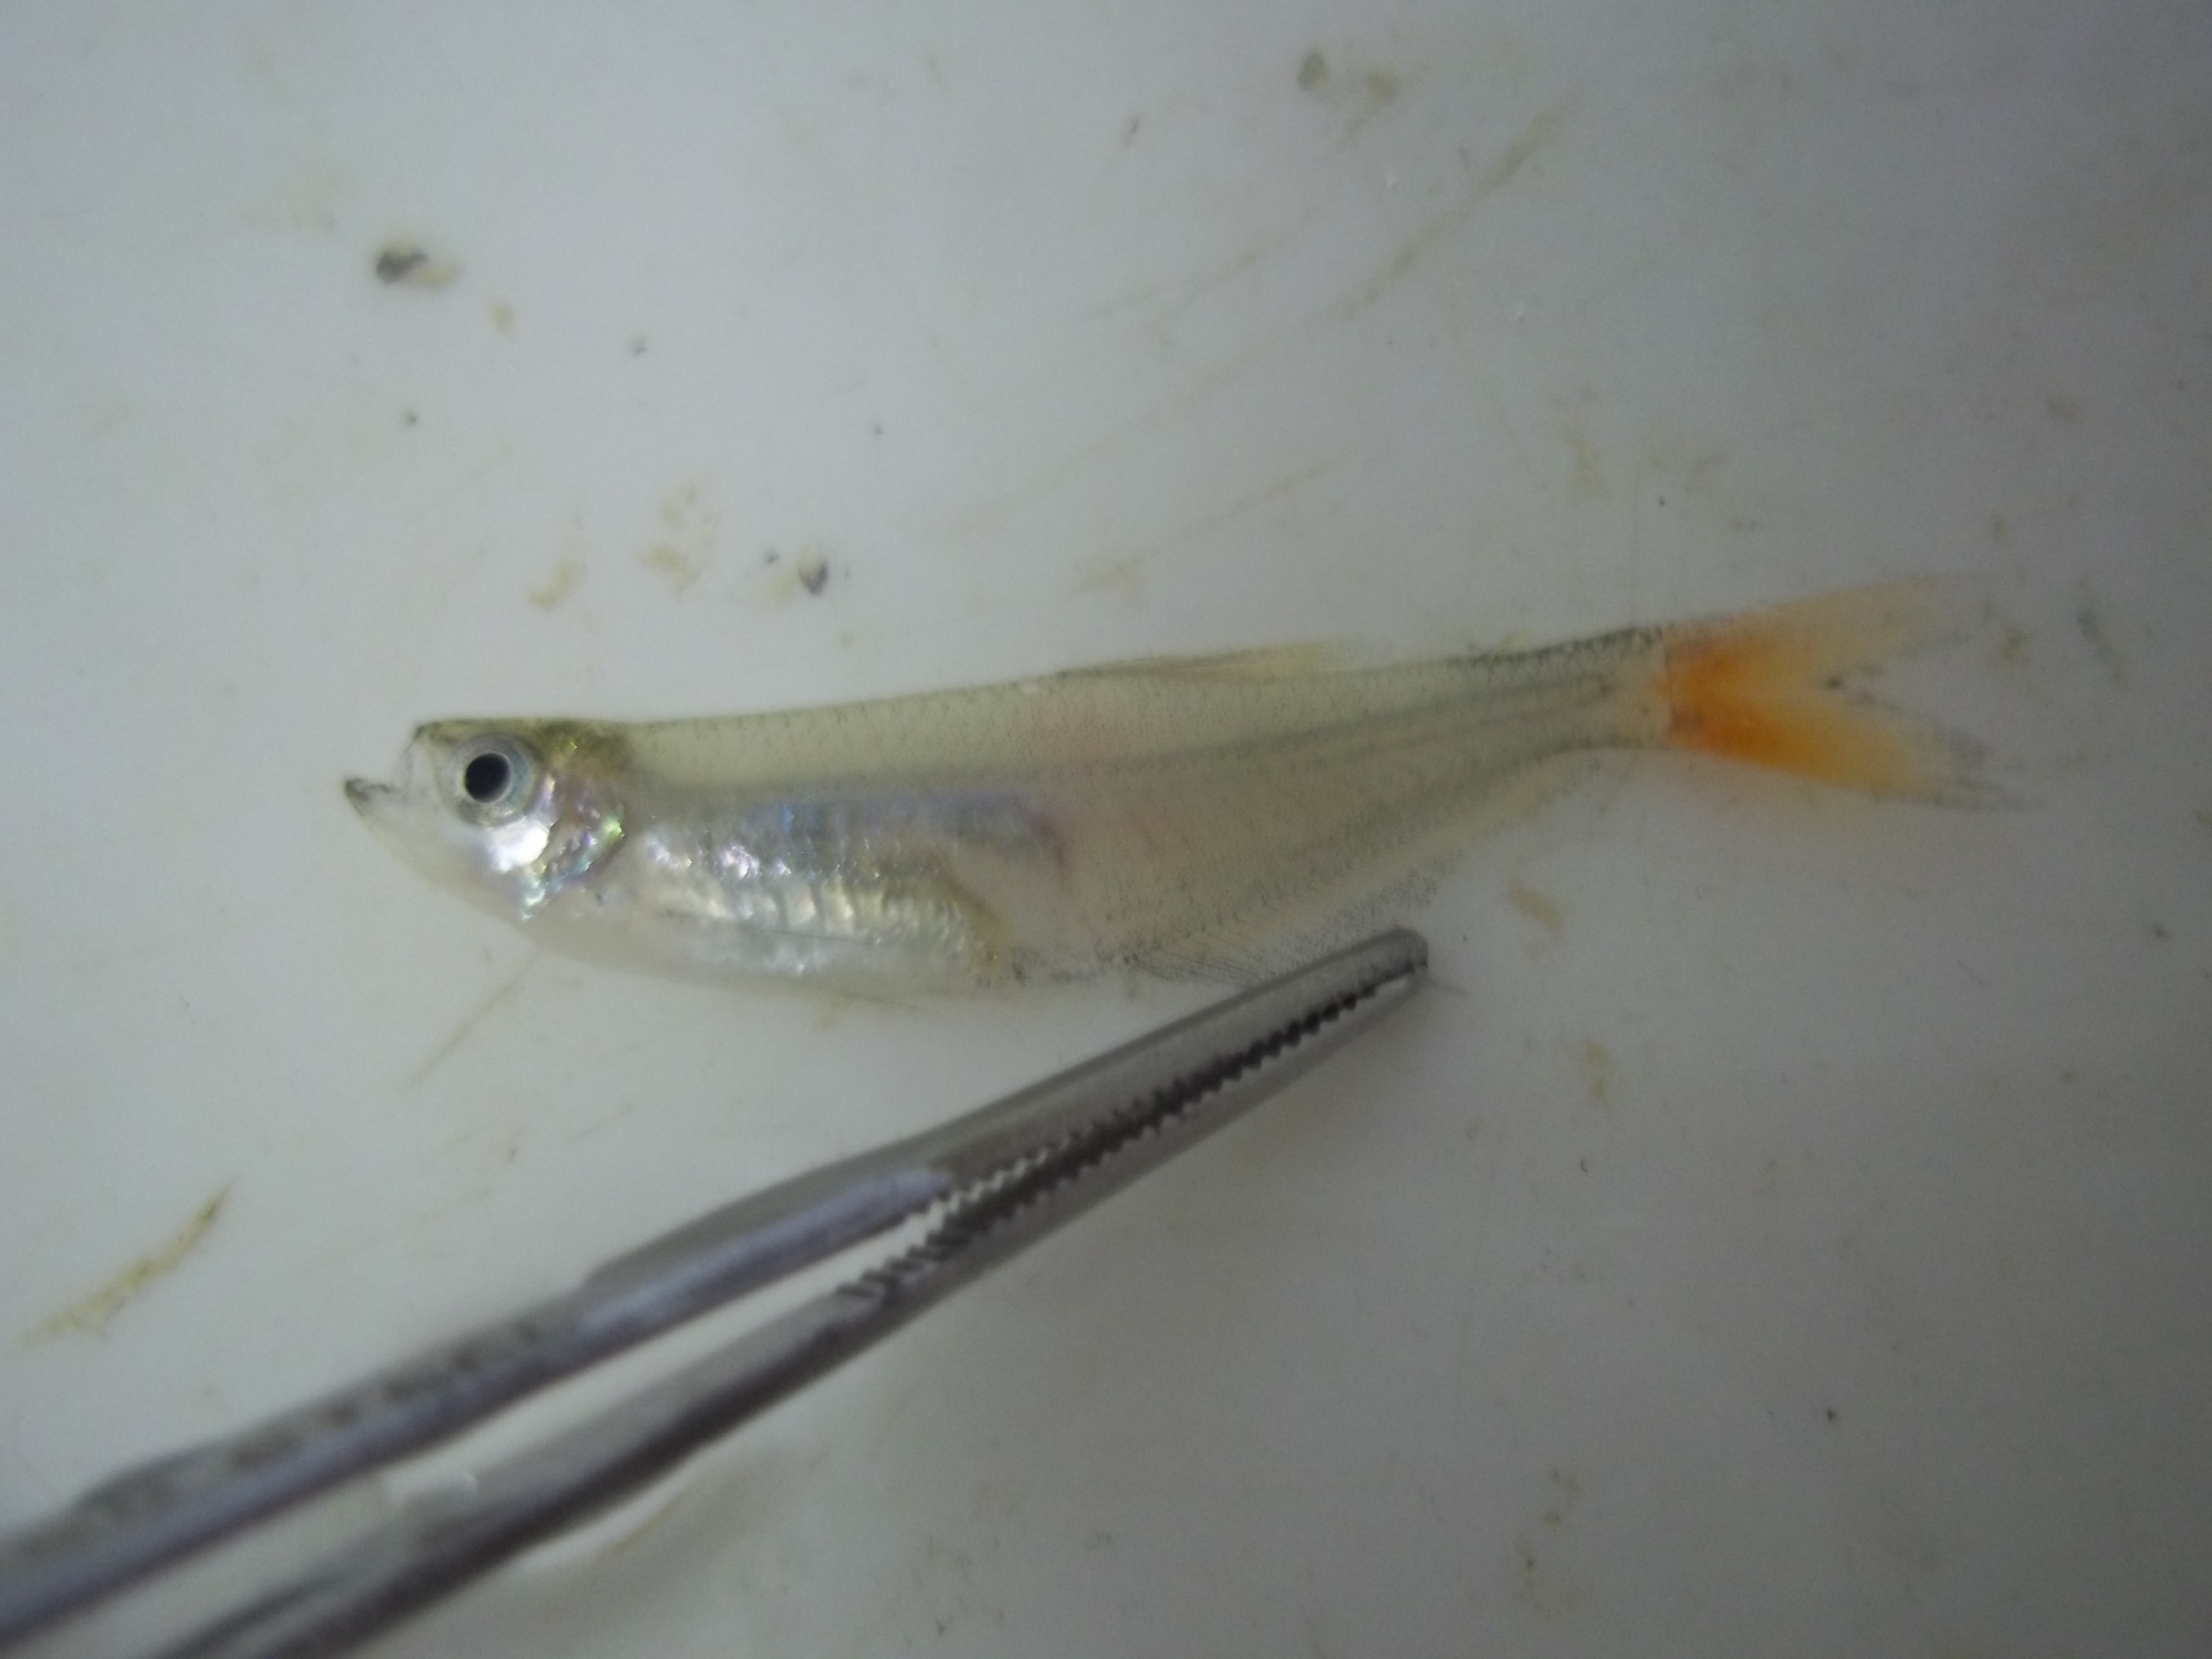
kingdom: Animalia
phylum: Chordata
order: Characiformes
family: Characidae
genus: Aphyocharax
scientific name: Aphyocharax anisitsi
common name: Bloodfin
